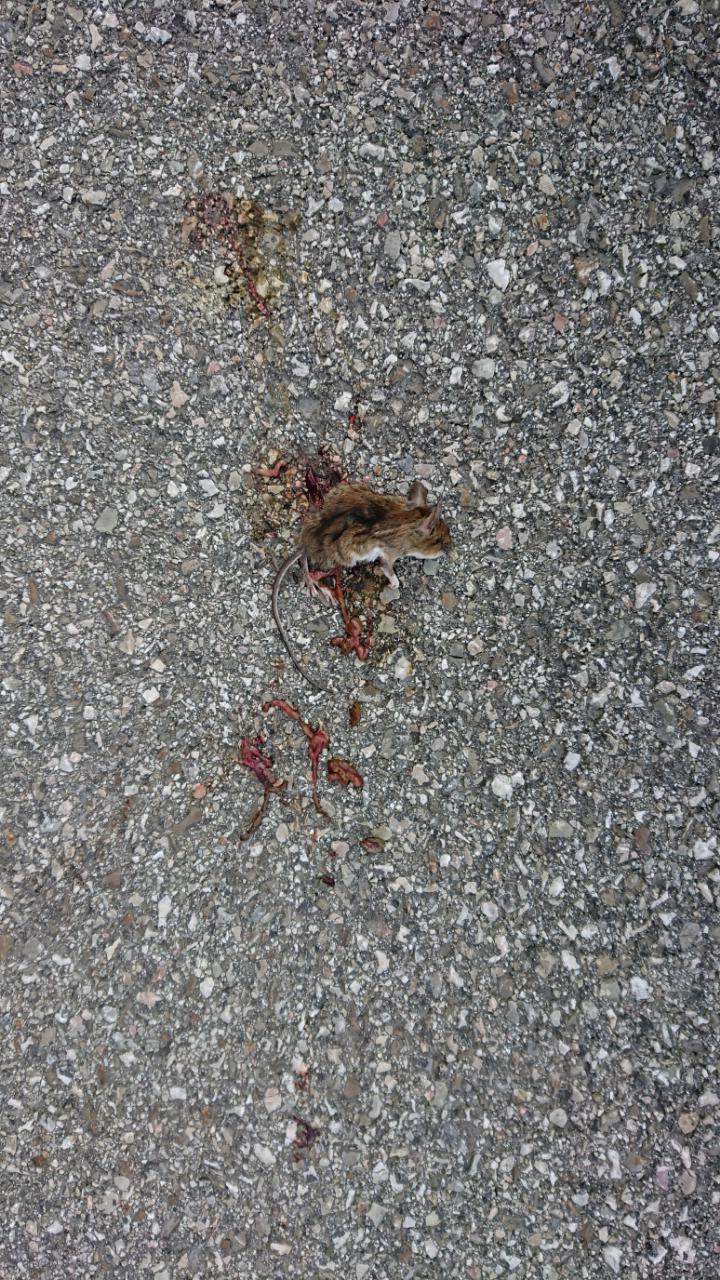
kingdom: Animalia
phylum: Chordata
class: Mammalia
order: Rodentia
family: Muridae
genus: Apodemus
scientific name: Apodemus
